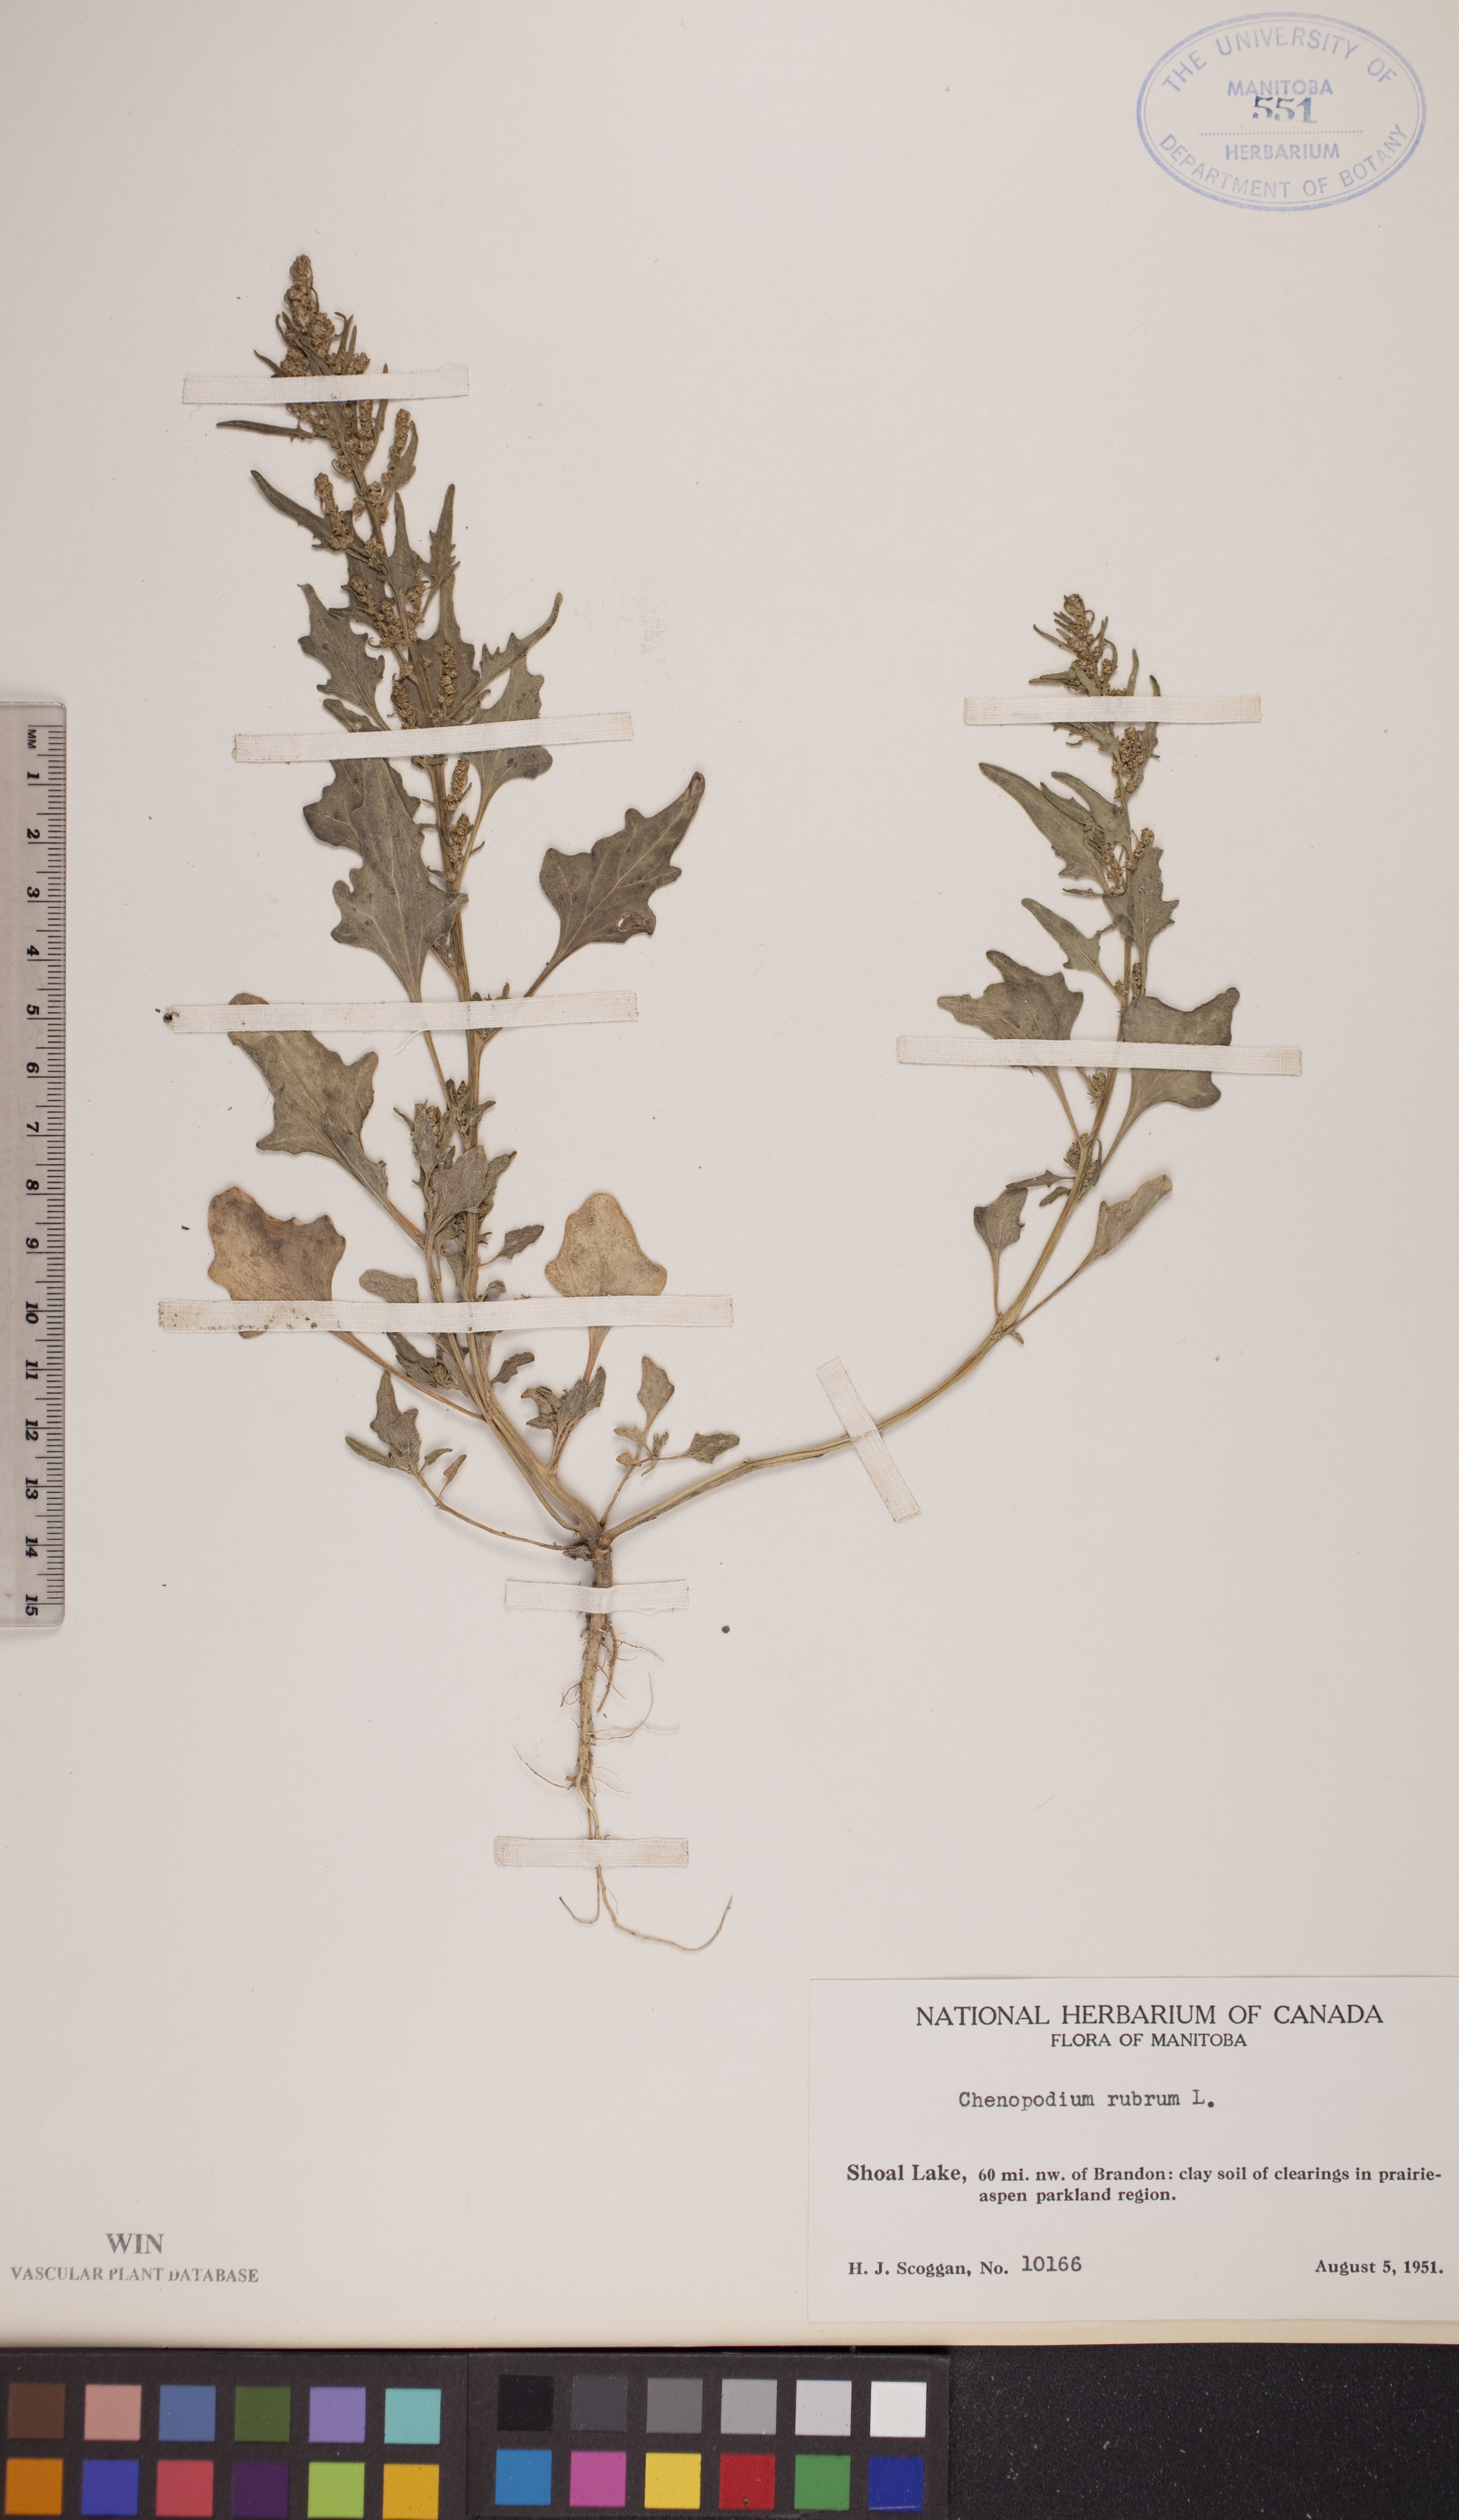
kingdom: Plantae
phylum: Tracheophyta
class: Magnoliopsida
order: Caryophyllales
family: Amaranthaceae
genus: Oxybasis
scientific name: Oxybasis rubra
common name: Red goosefoot
